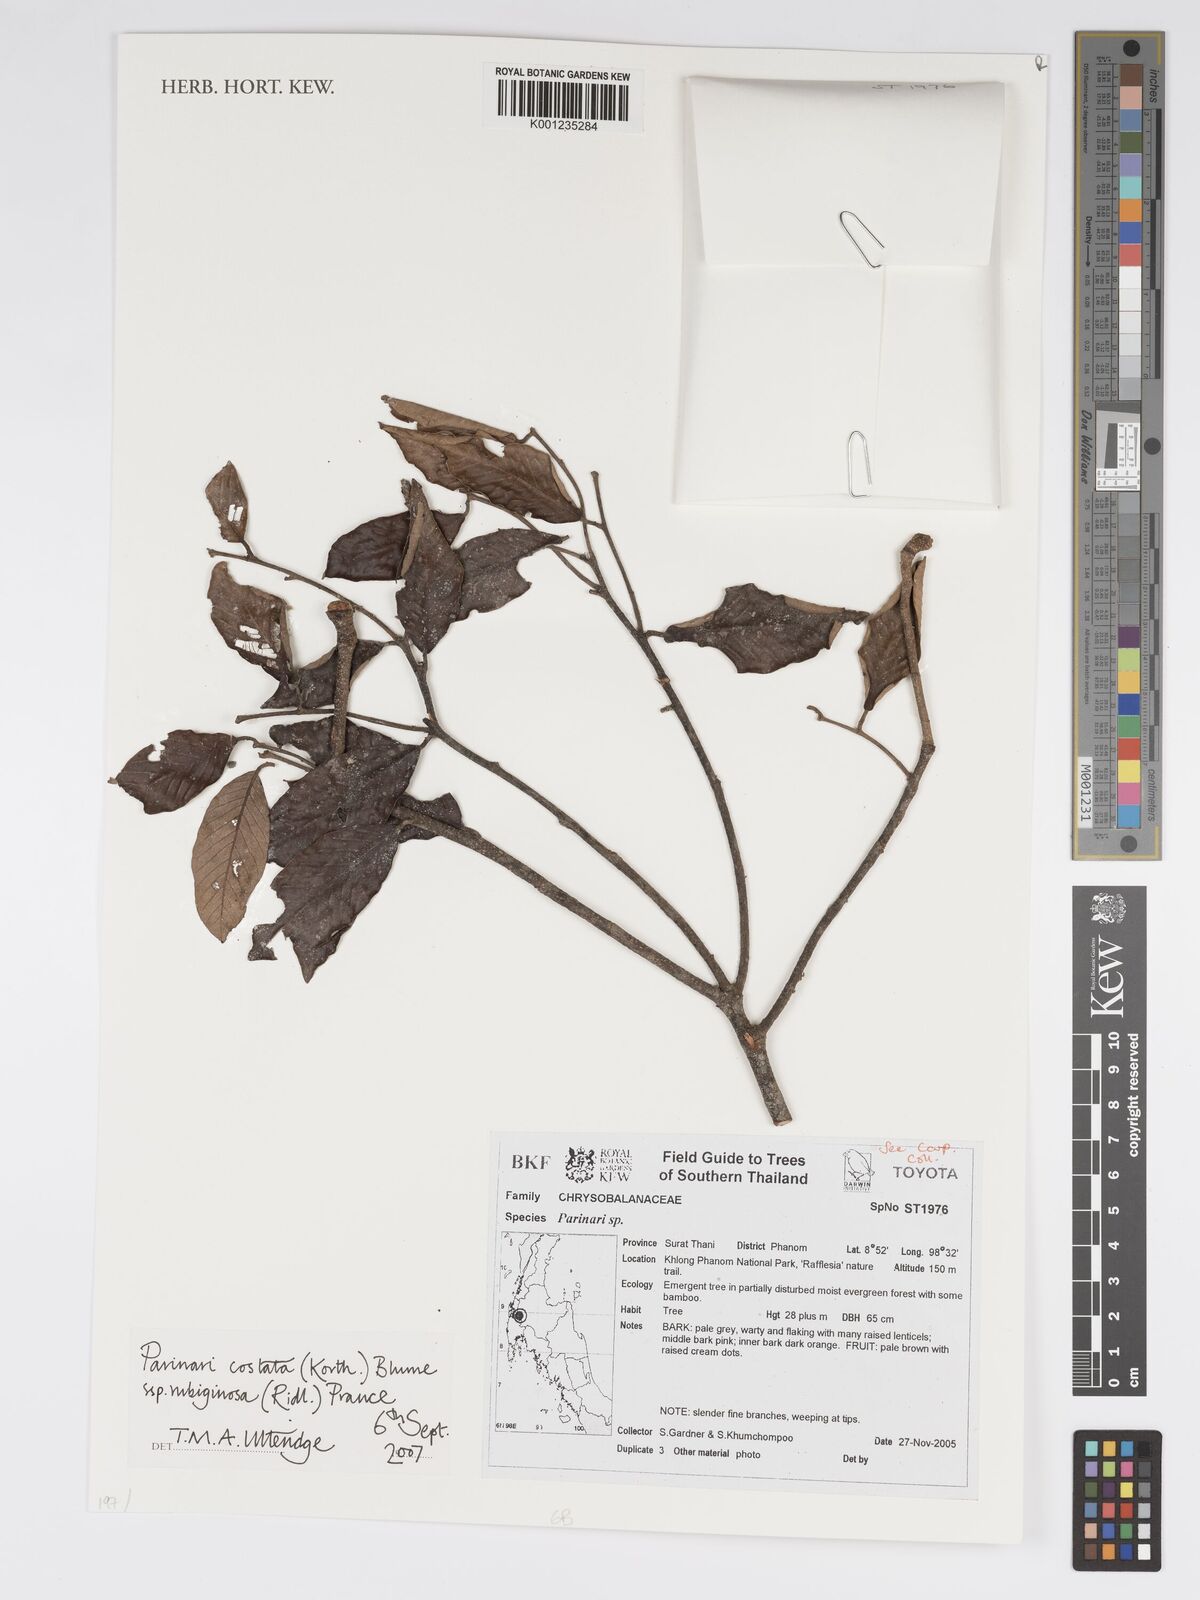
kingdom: Plantae
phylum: Tracheophyta
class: Magnoliopsida
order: Malpighiales
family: Chrysobalanaceae
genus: Parinari
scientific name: Parinari costata
